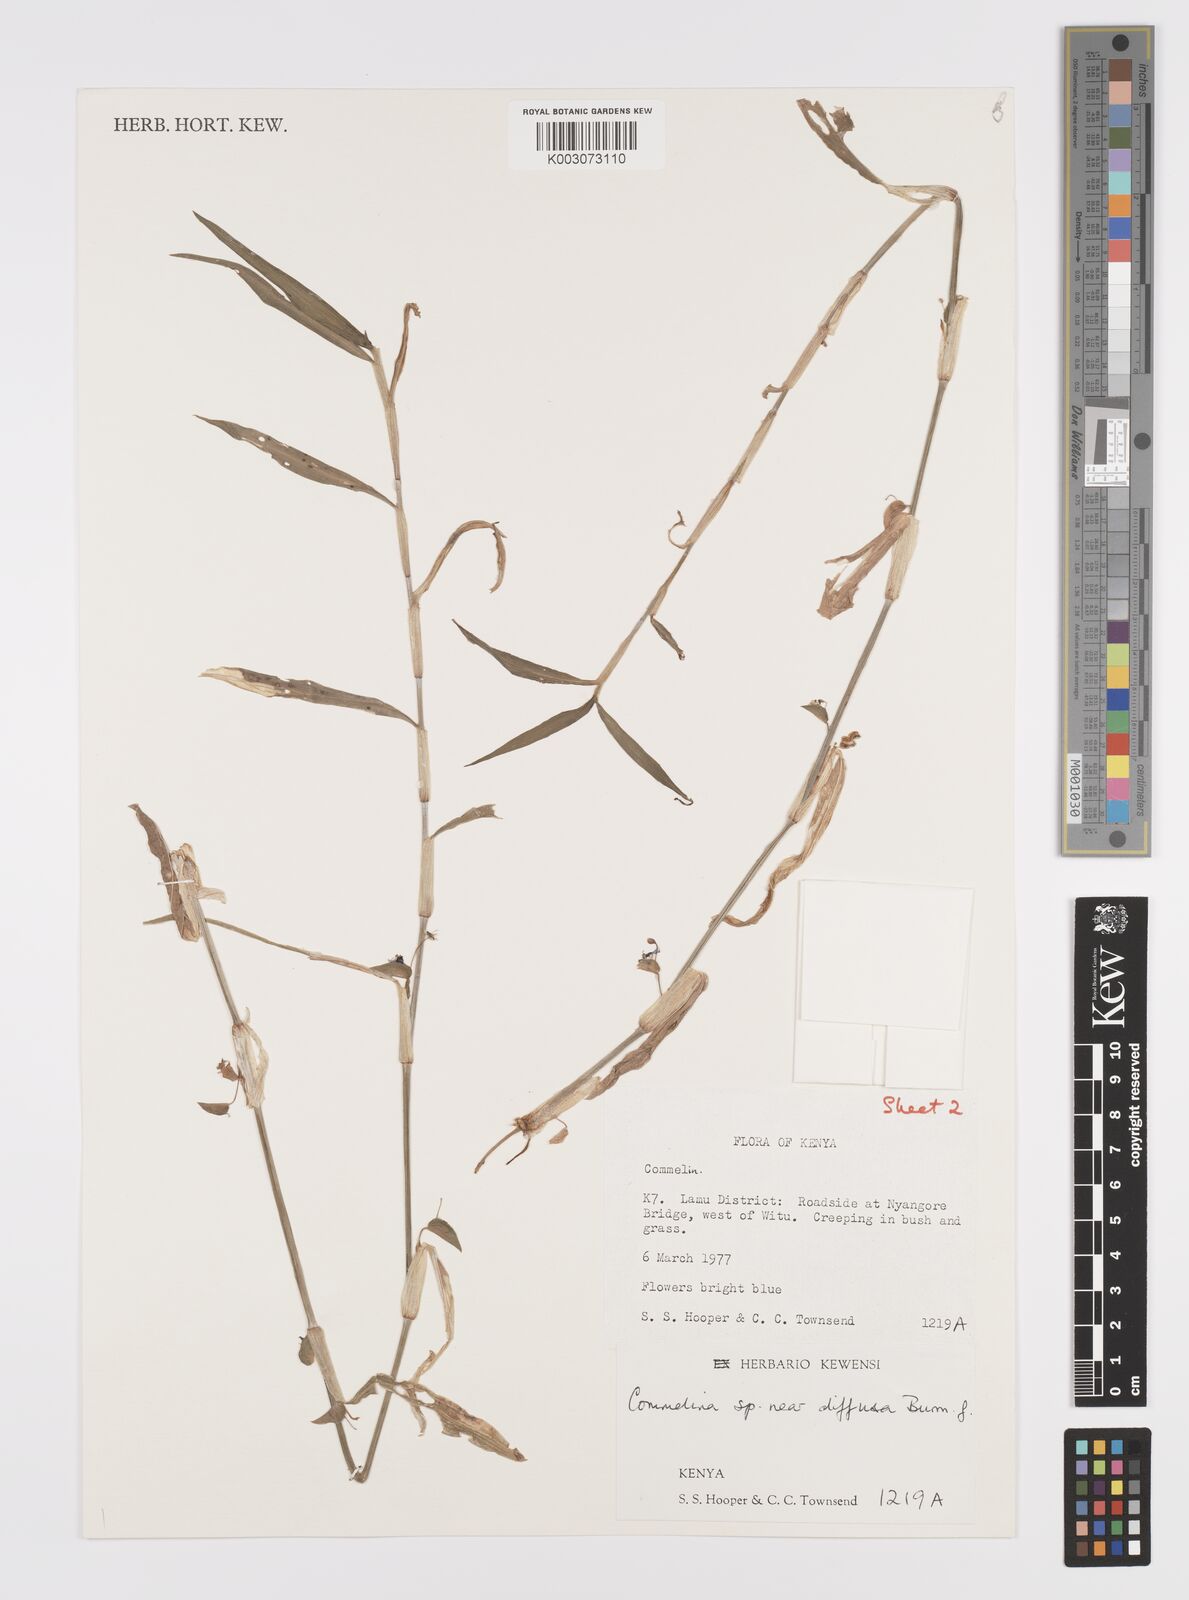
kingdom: Plantae
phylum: Tracheophyta
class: Liliopsida
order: Commelinales
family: Commelinaceae
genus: Commelina
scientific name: Commelina diffusa
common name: Climbing dayflower
